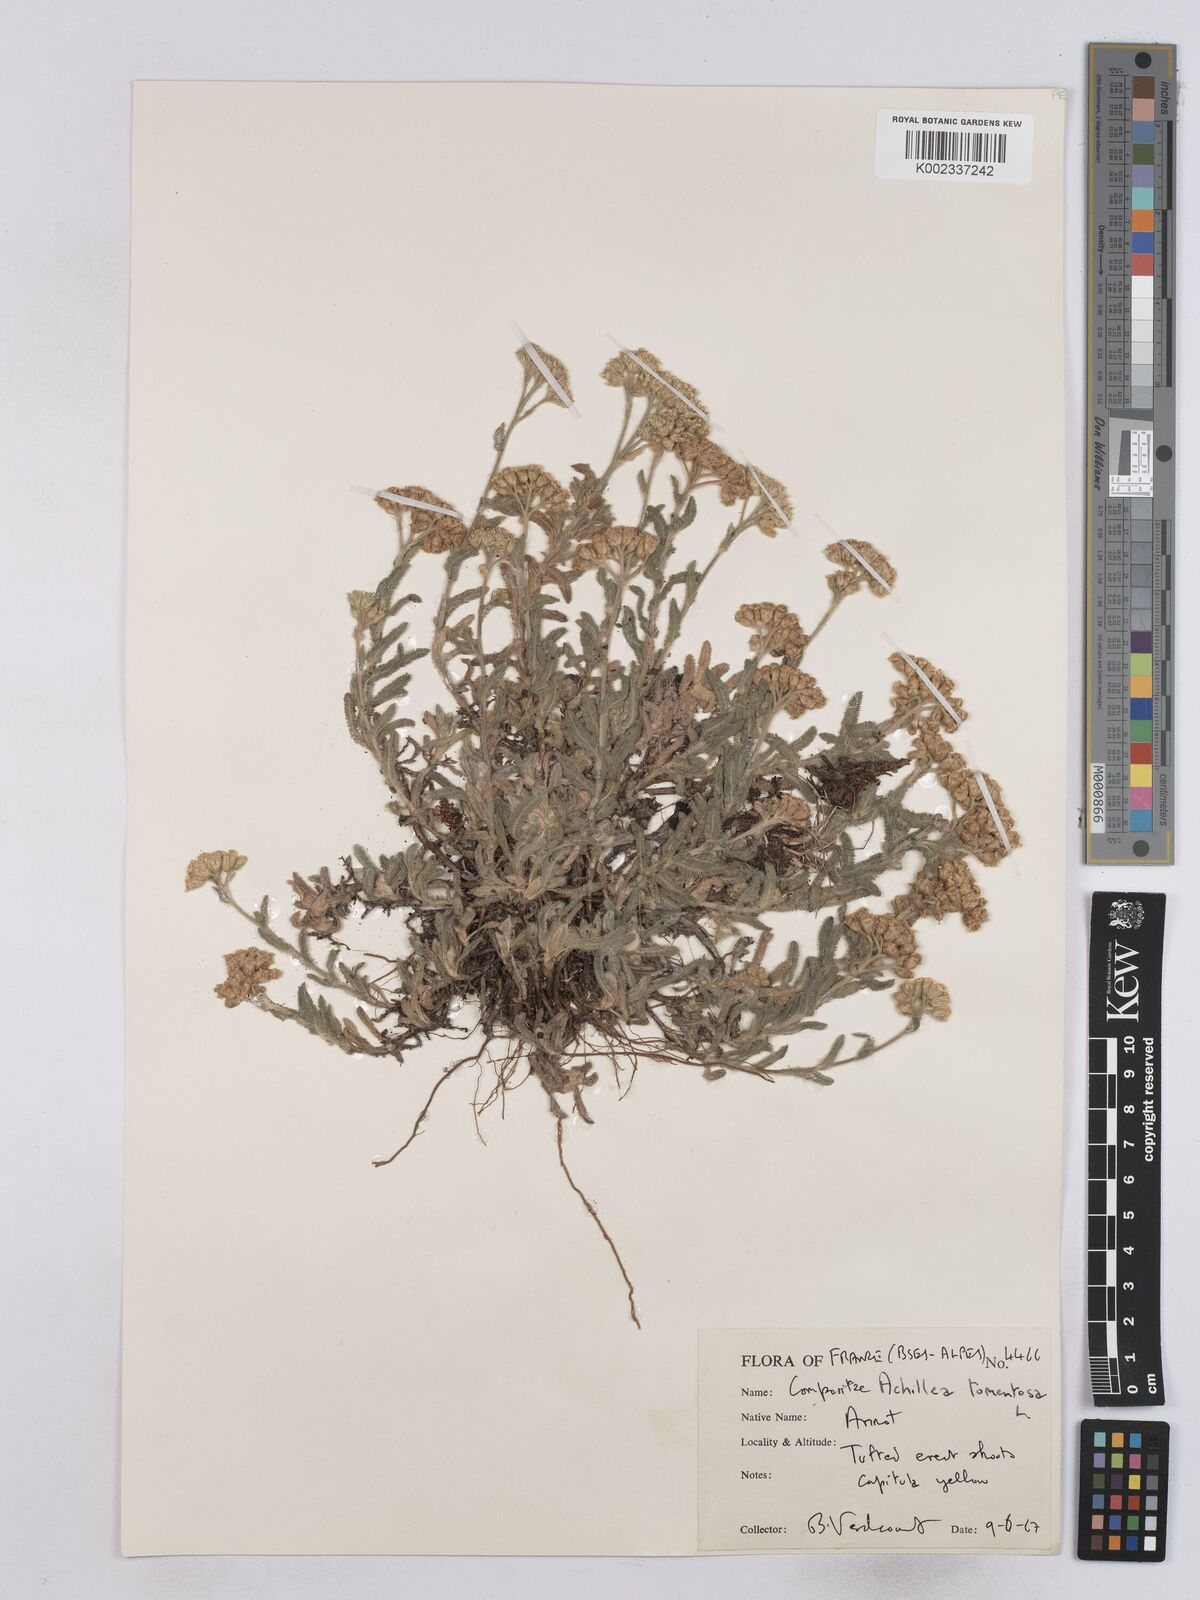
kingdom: Plantae
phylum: Tracheophyta
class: Magnoliopsida
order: Asterales
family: Asteraceae
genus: Achillea
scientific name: Achillea tomentosa
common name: Yellow milfoil
